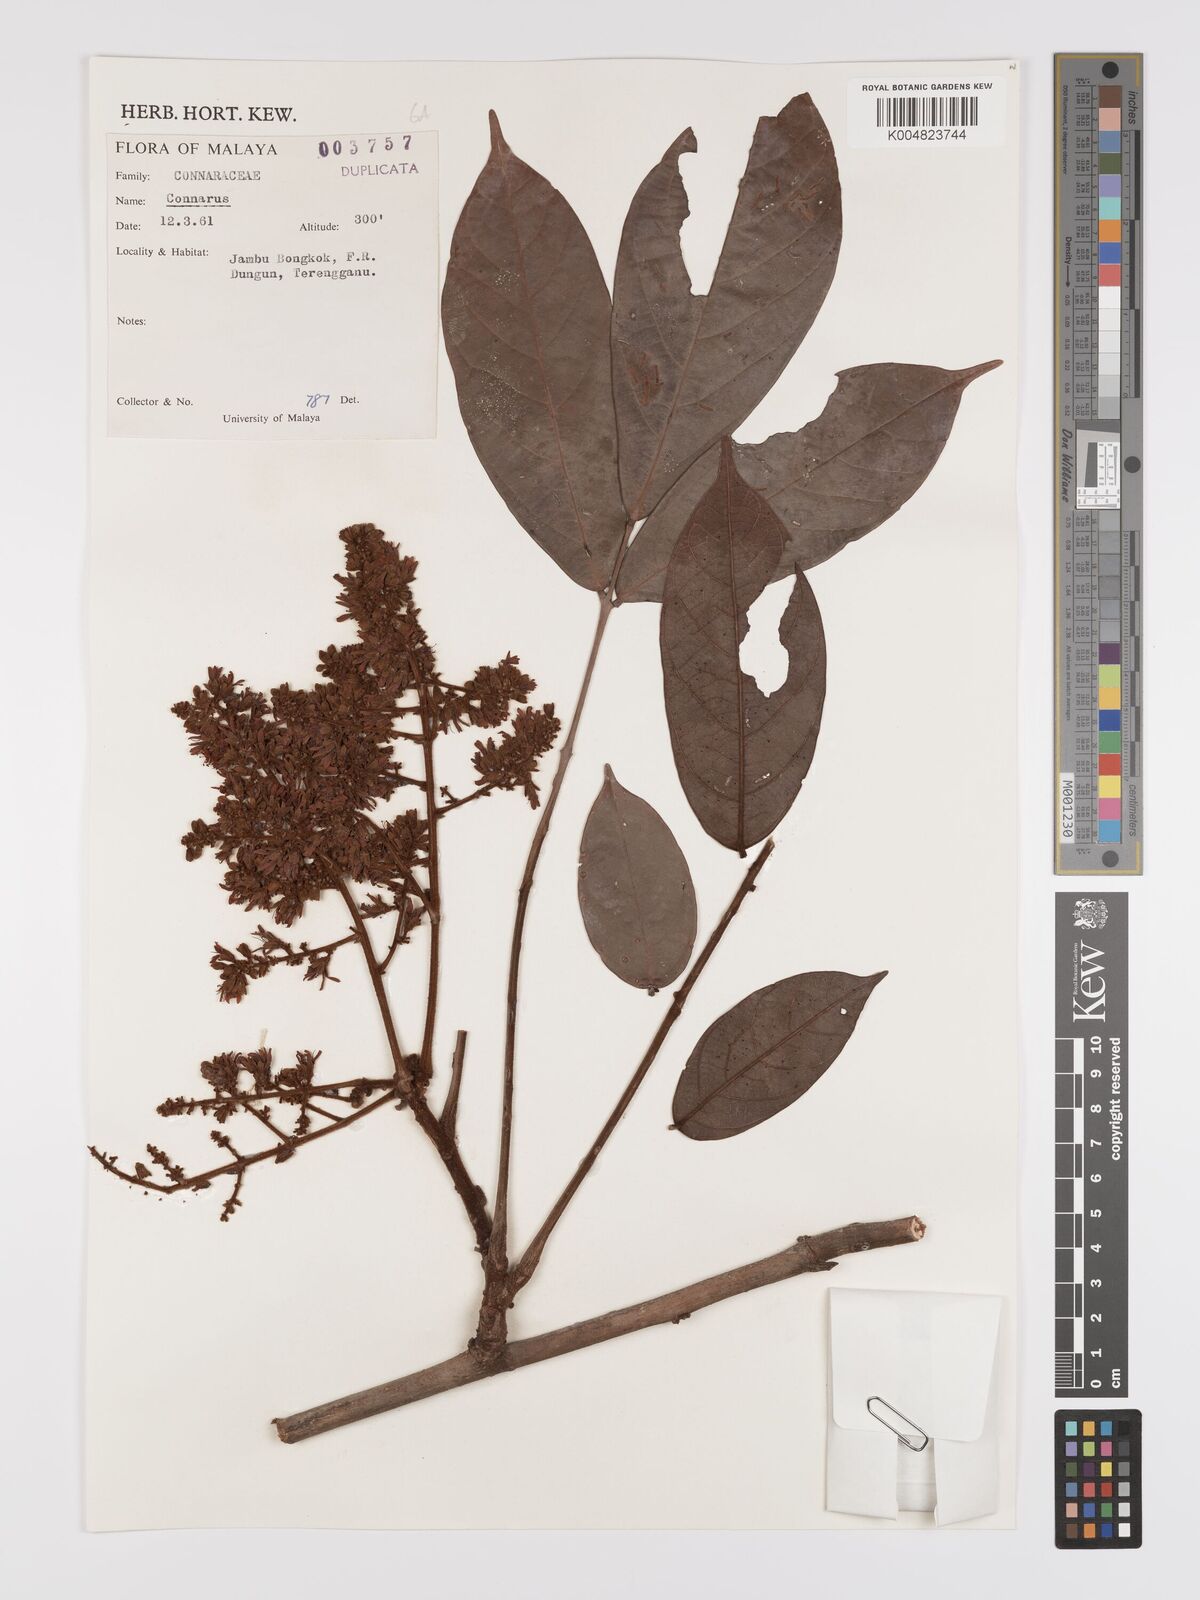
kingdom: Plantae
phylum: Tracheophyta
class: Magnoliopsida
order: Oxalidales
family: Connaraceae
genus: Connarus
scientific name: Connarus
